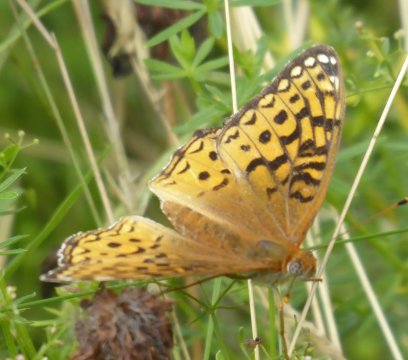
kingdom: Animalia
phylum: Arthropoda
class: Insecta
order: Lepidoptera
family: Nymphalidae
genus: Speyeria
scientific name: Speyeria atlantis
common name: Atlantis Fritillary
